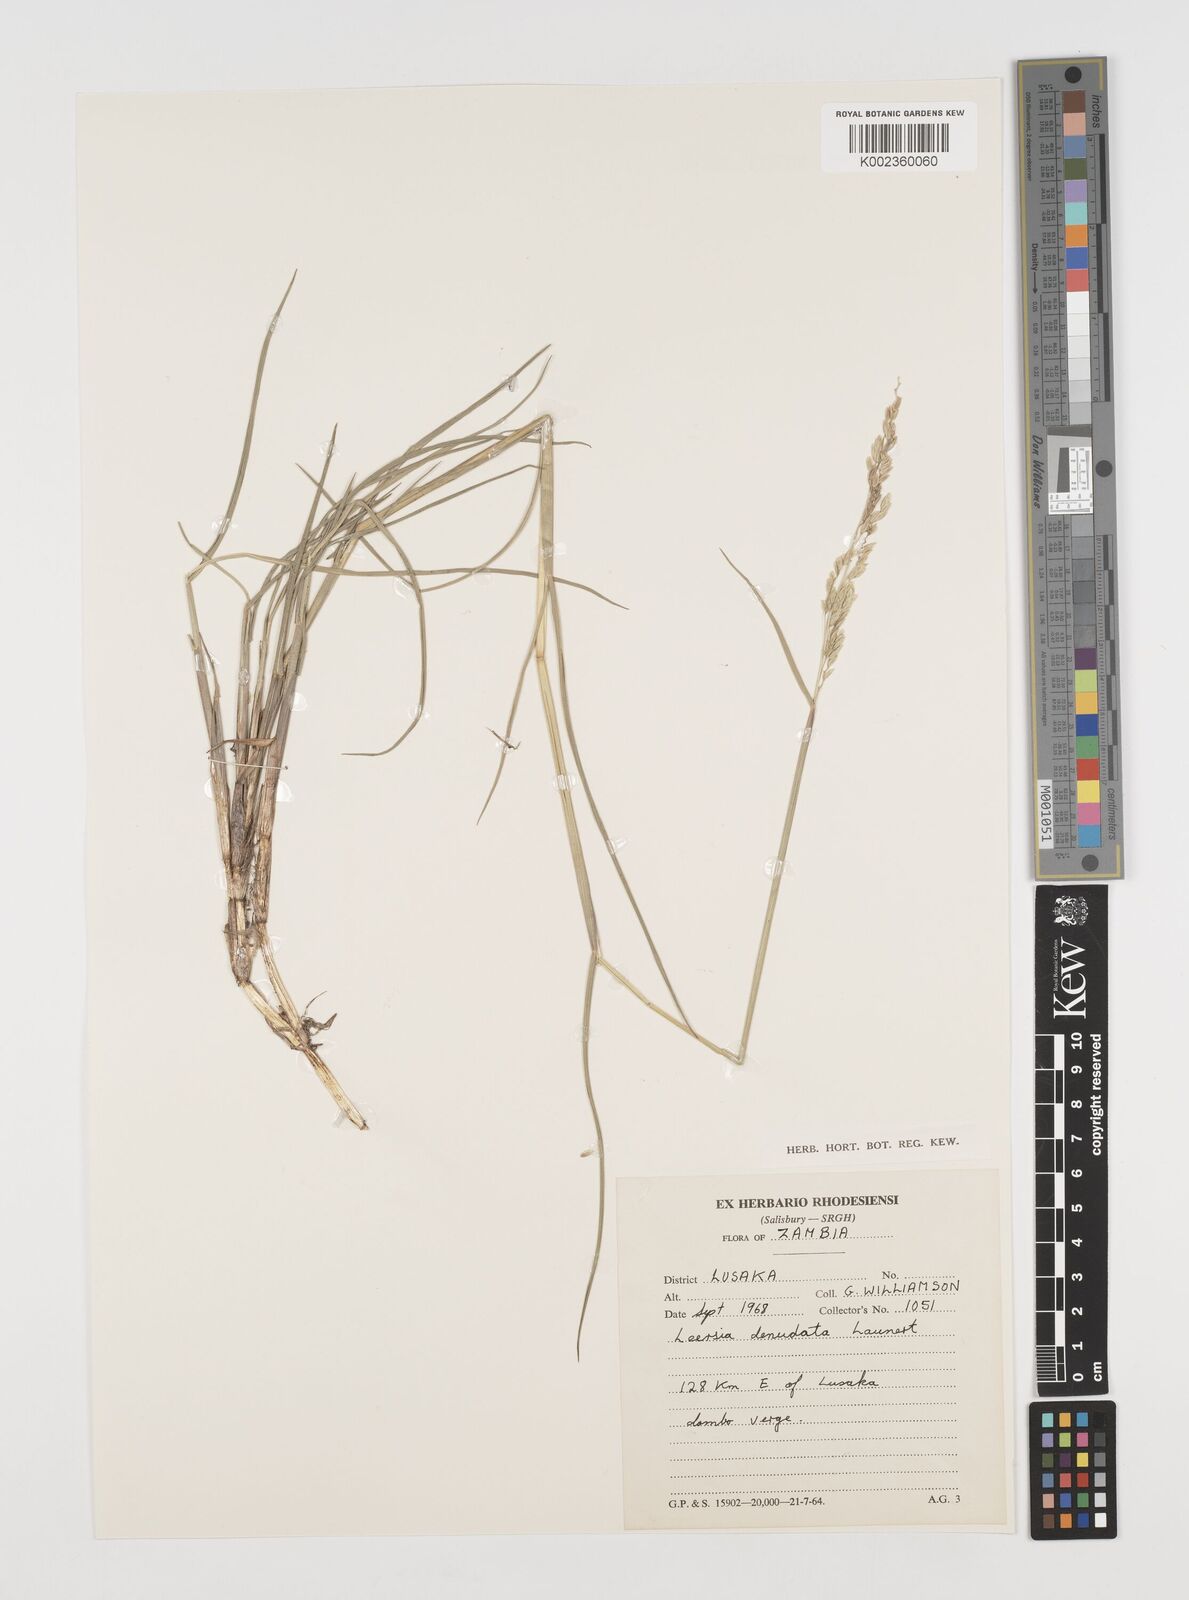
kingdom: Plantae
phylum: Tracheophyta
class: Liliopsida
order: Poales
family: Poaceae
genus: Leersia
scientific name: Leersia denudata
